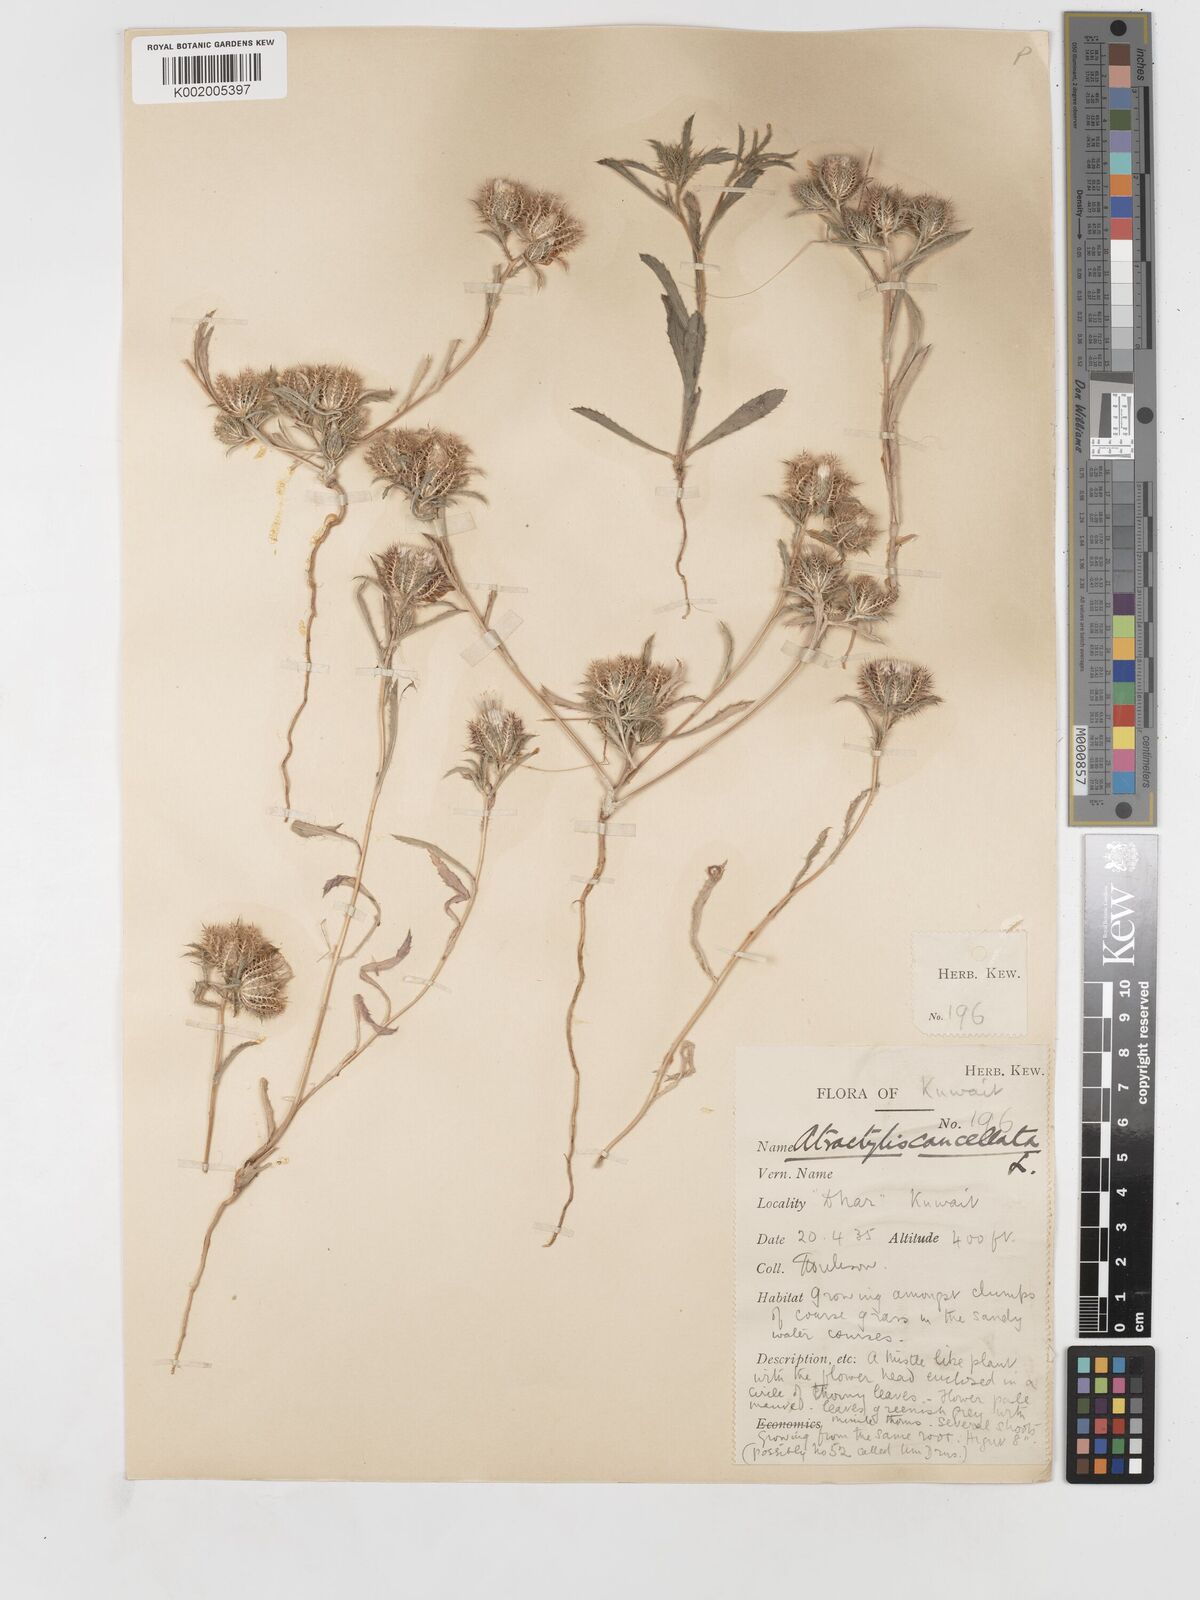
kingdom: Plantae
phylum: Tracheophyta
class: Magnoliopsida
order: Asterales
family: Asteraceae
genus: Atractylis
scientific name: Atractylis cancellata
